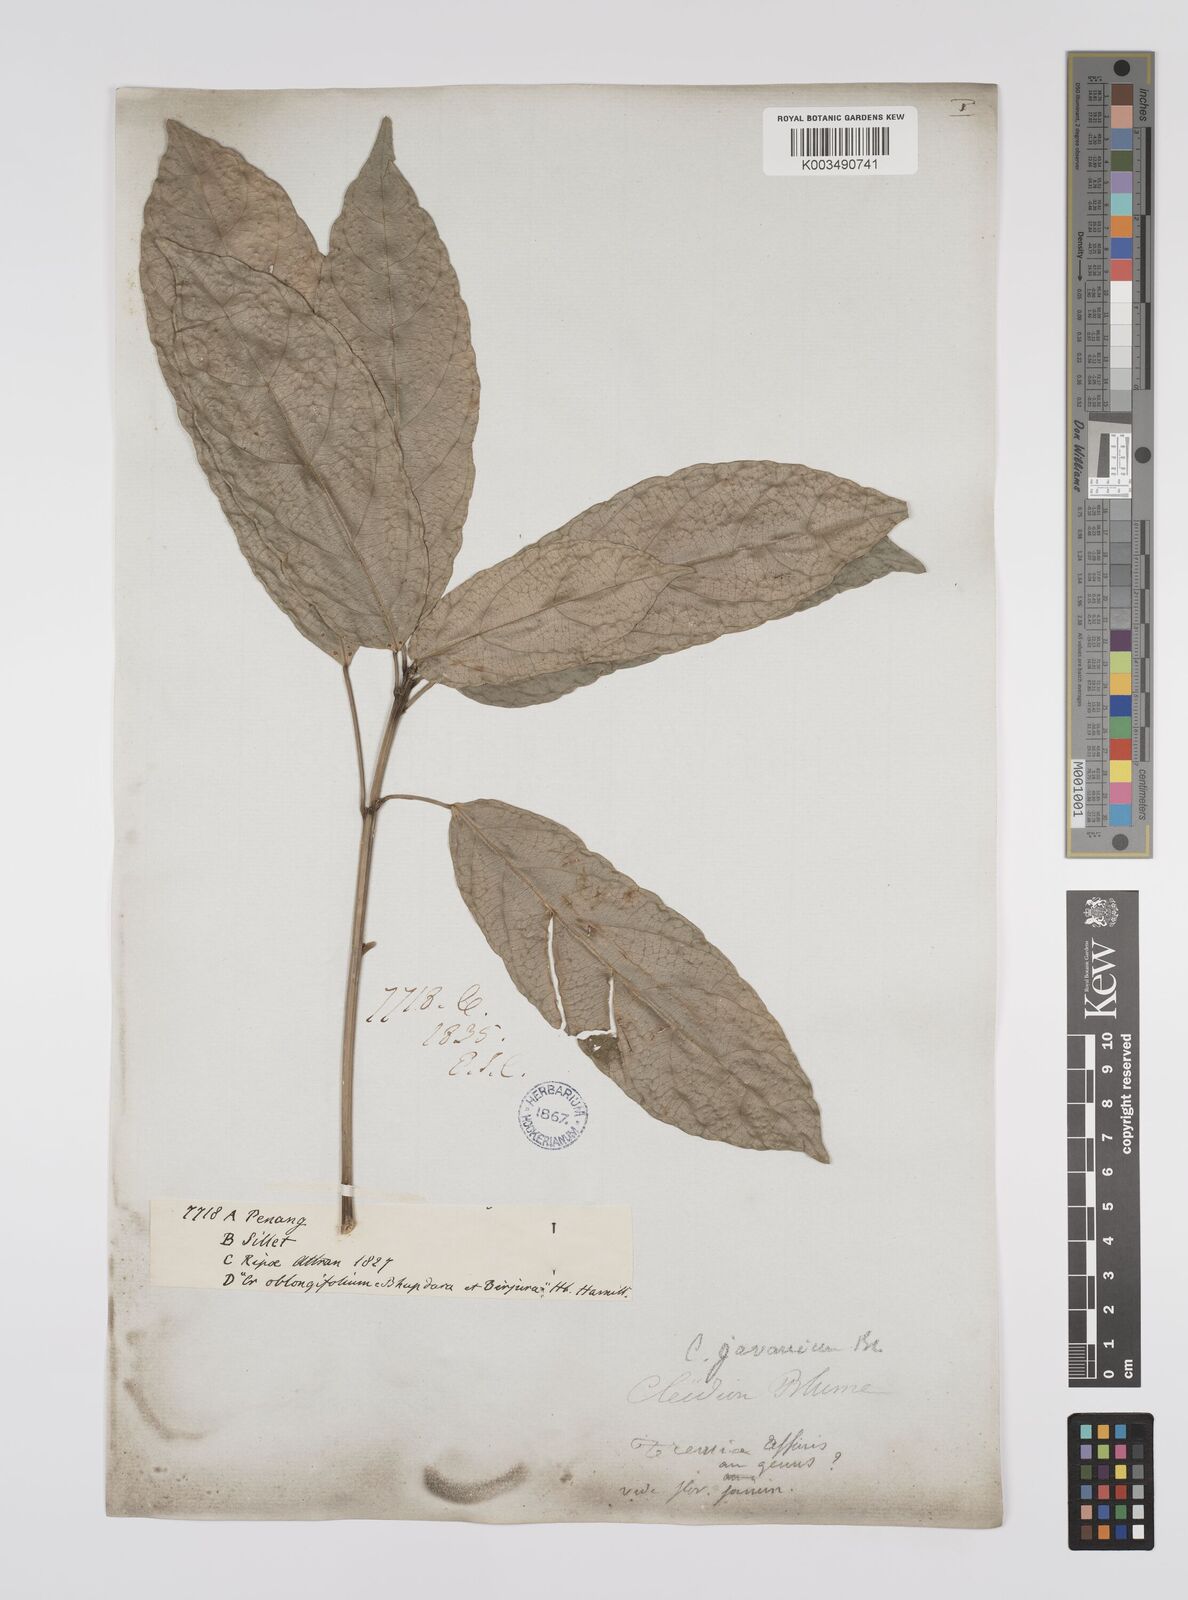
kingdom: Plantae
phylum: Tracheophyta
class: Magnoliopsida
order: Malpighiales
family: Euphorbiaceae
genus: Acalypha
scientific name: Acalypha spiciflora
